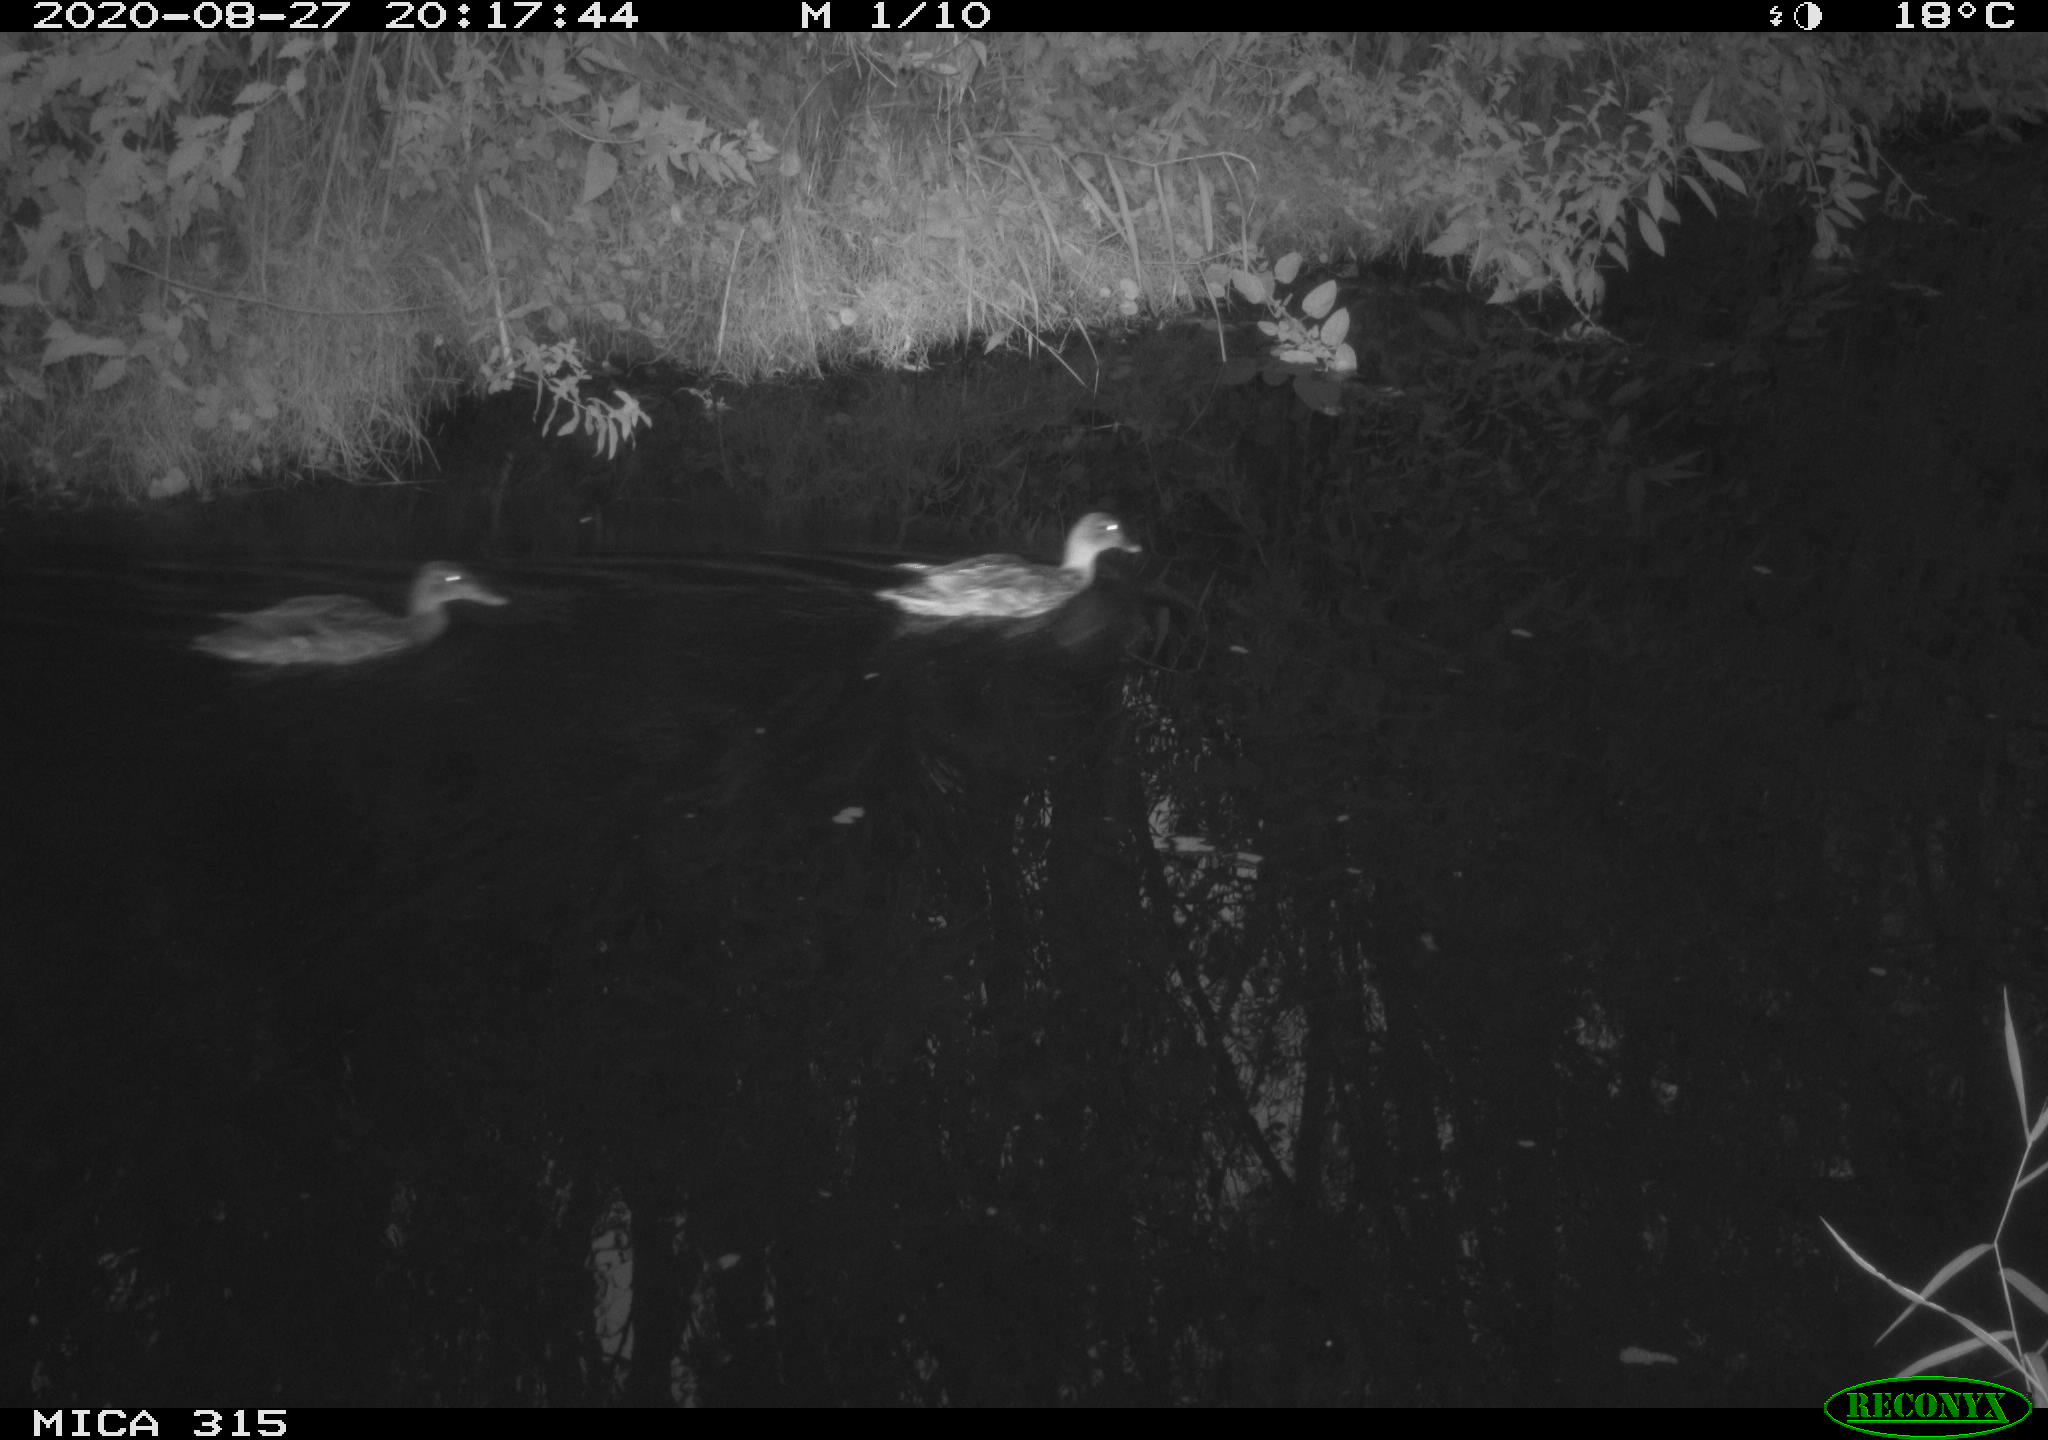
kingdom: Animalia
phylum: Chordata
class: Aves
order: Anseriformes
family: Anatidae
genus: Anas
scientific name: Anas platyrhynchos
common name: Mallard
